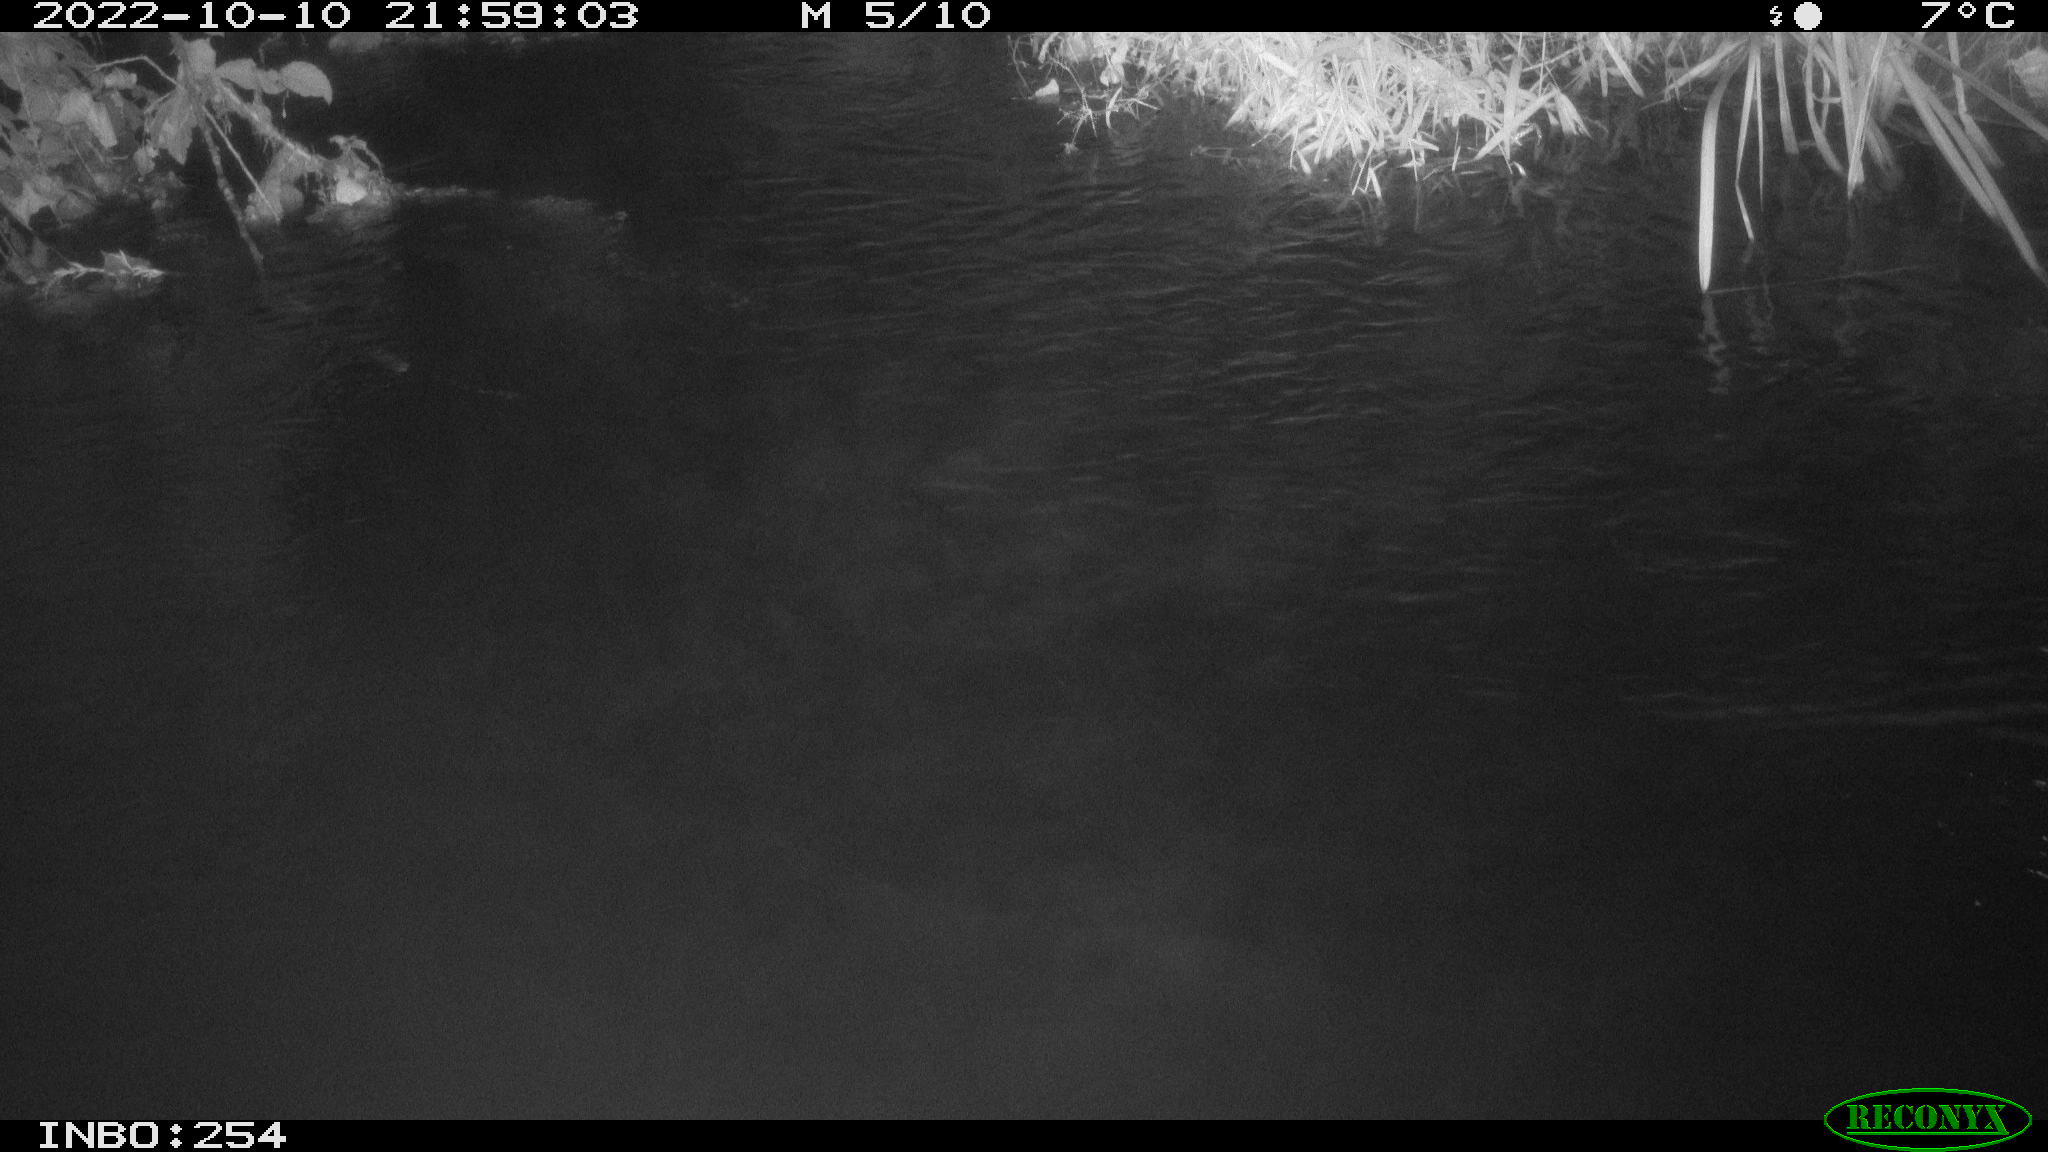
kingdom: Animalia
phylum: Chordata
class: Aves
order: Anseriformes
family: Anatidae
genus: Anas
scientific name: Anas
